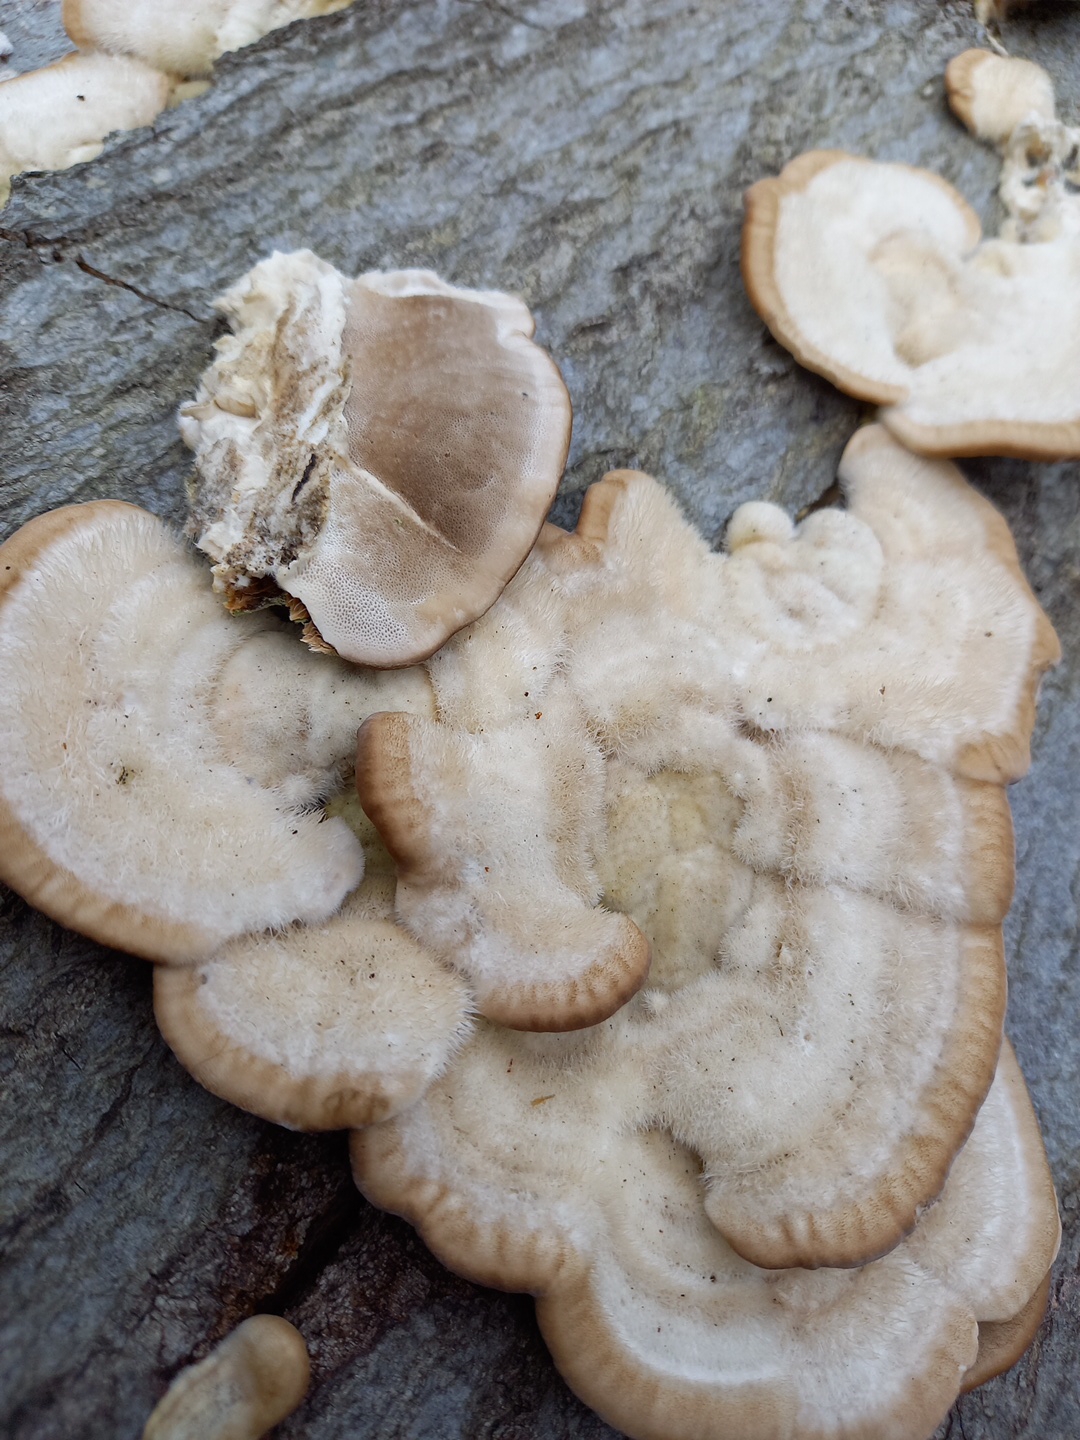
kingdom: Fungi
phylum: Basidiomycota
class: Agaricomycetes
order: Polyporales
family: Polyporaceae
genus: Trametes
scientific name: Trametes hirsuta
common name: håret læderporesvamp
